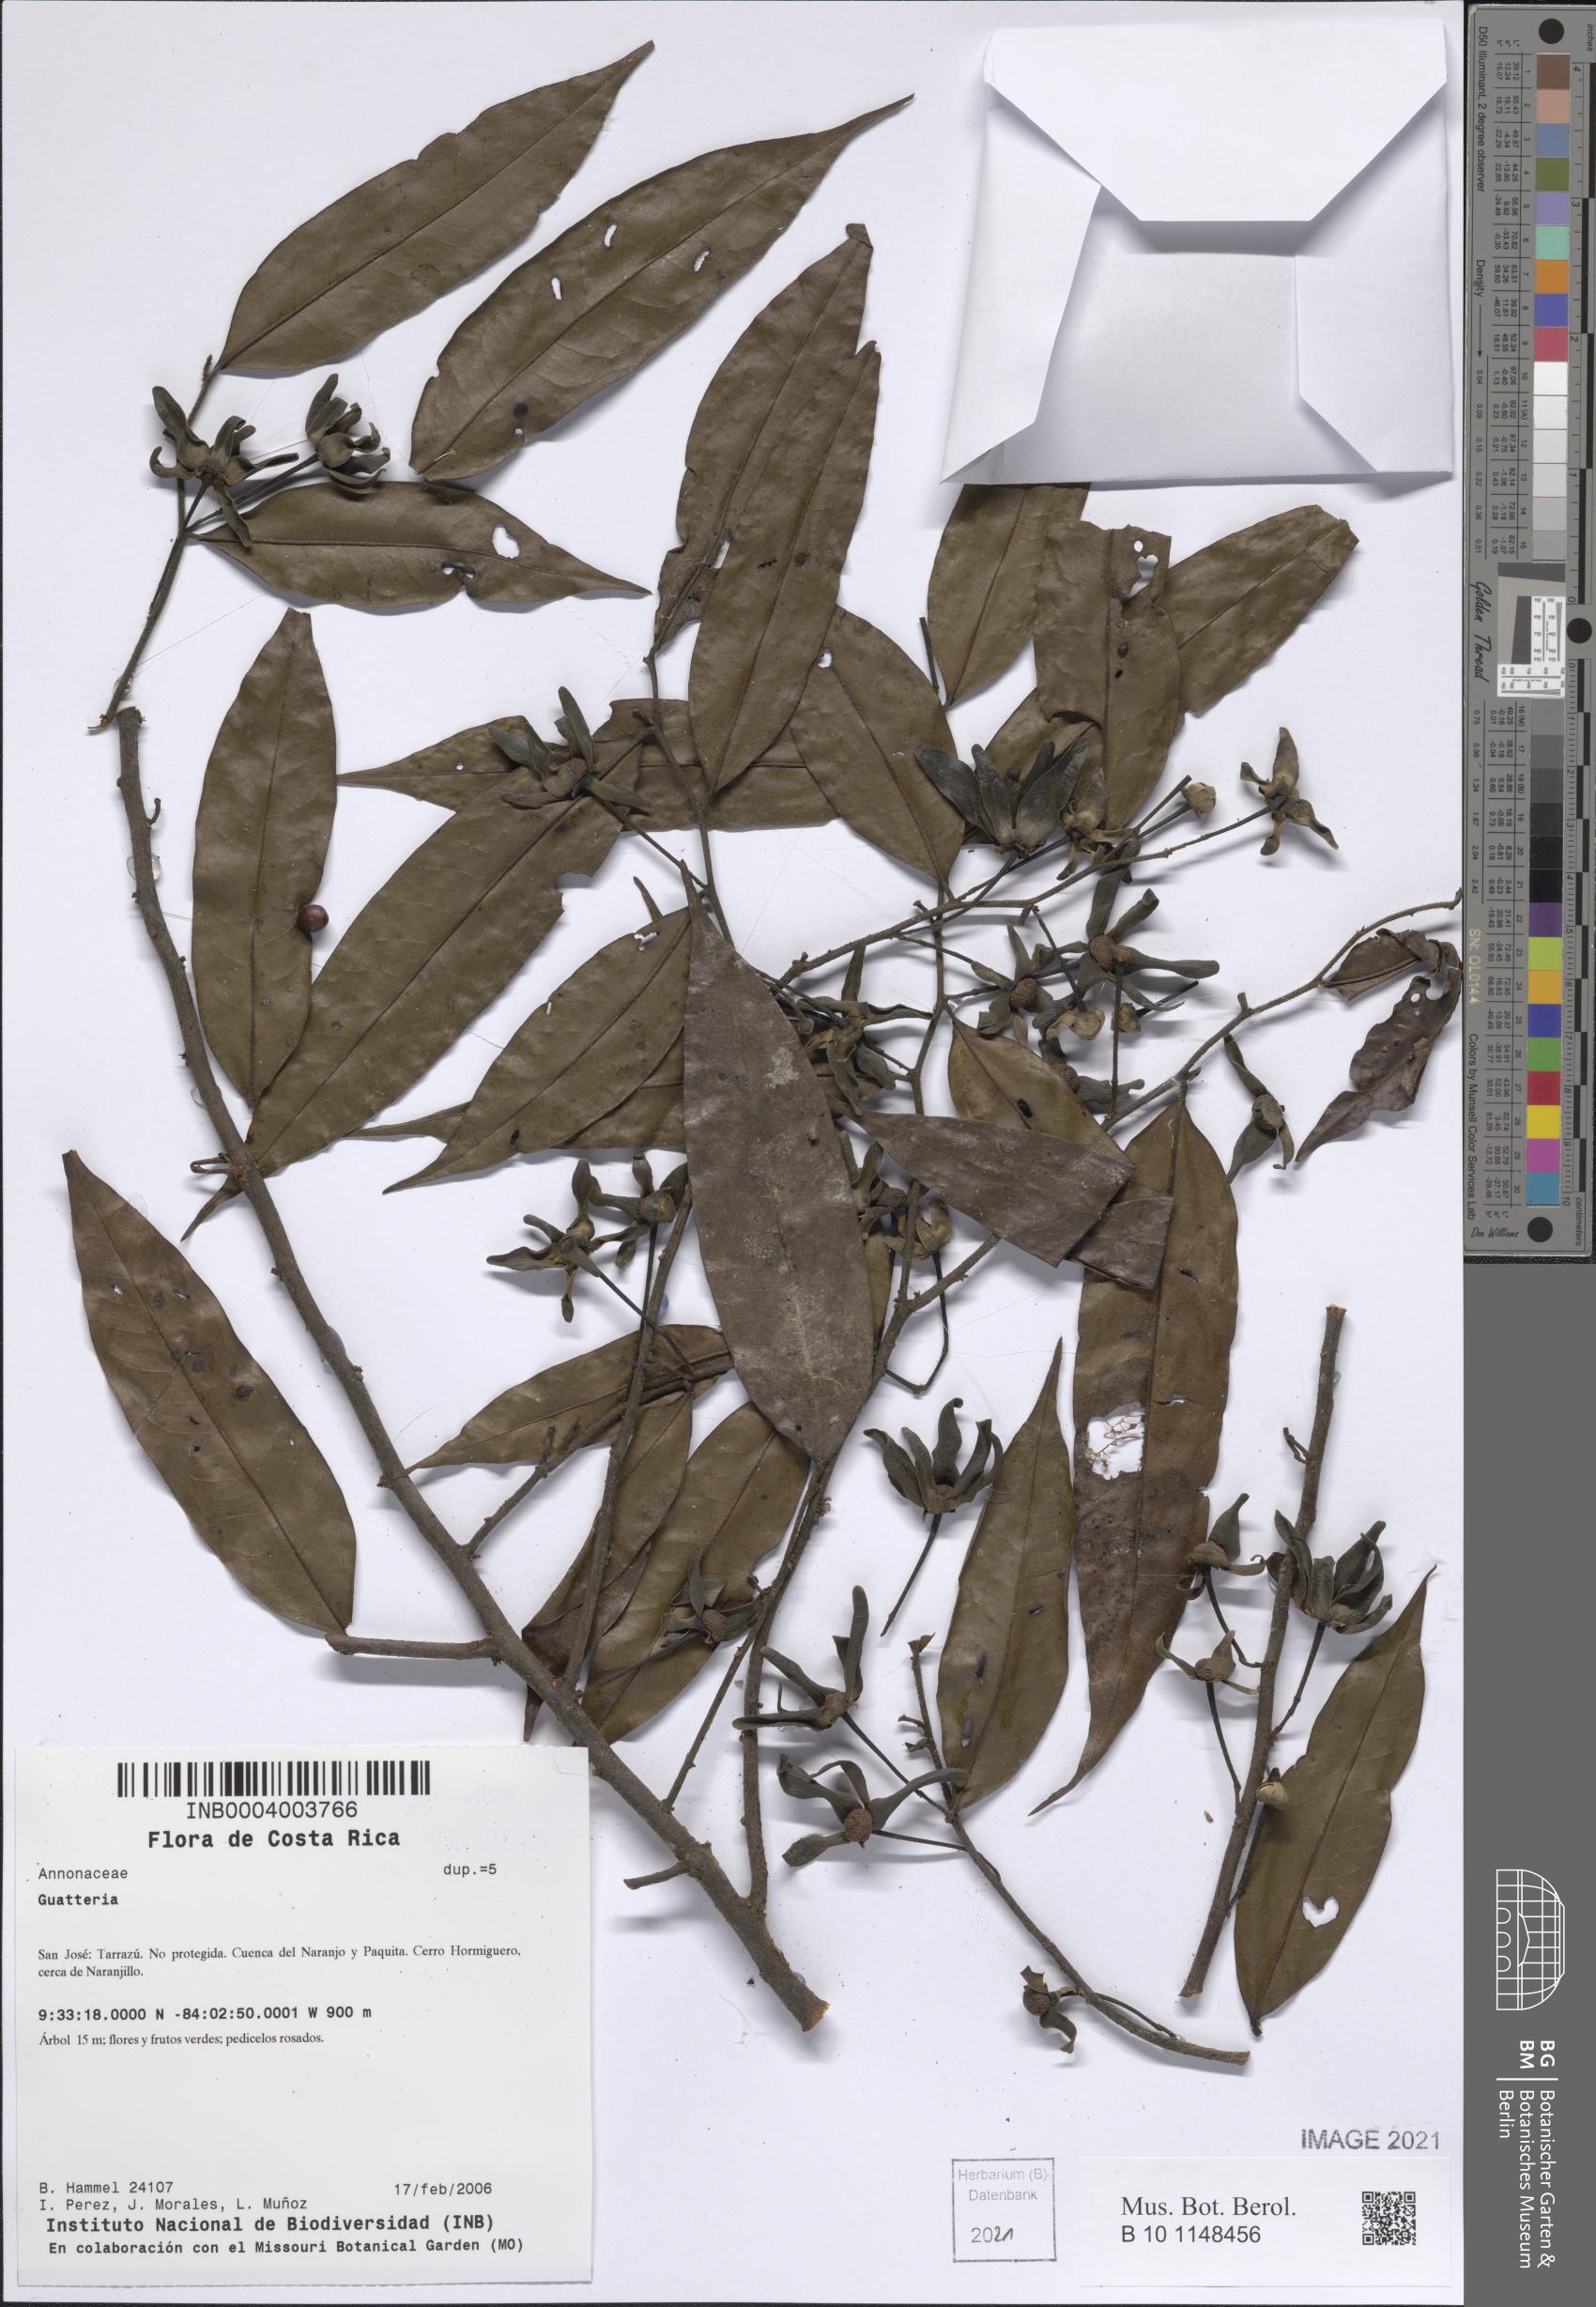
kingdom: Plantae
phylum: Tracheophyta
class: Magnoliopsida
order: Magnoliales
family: Annonaceae
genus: Guatteria
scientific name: Guatteria
